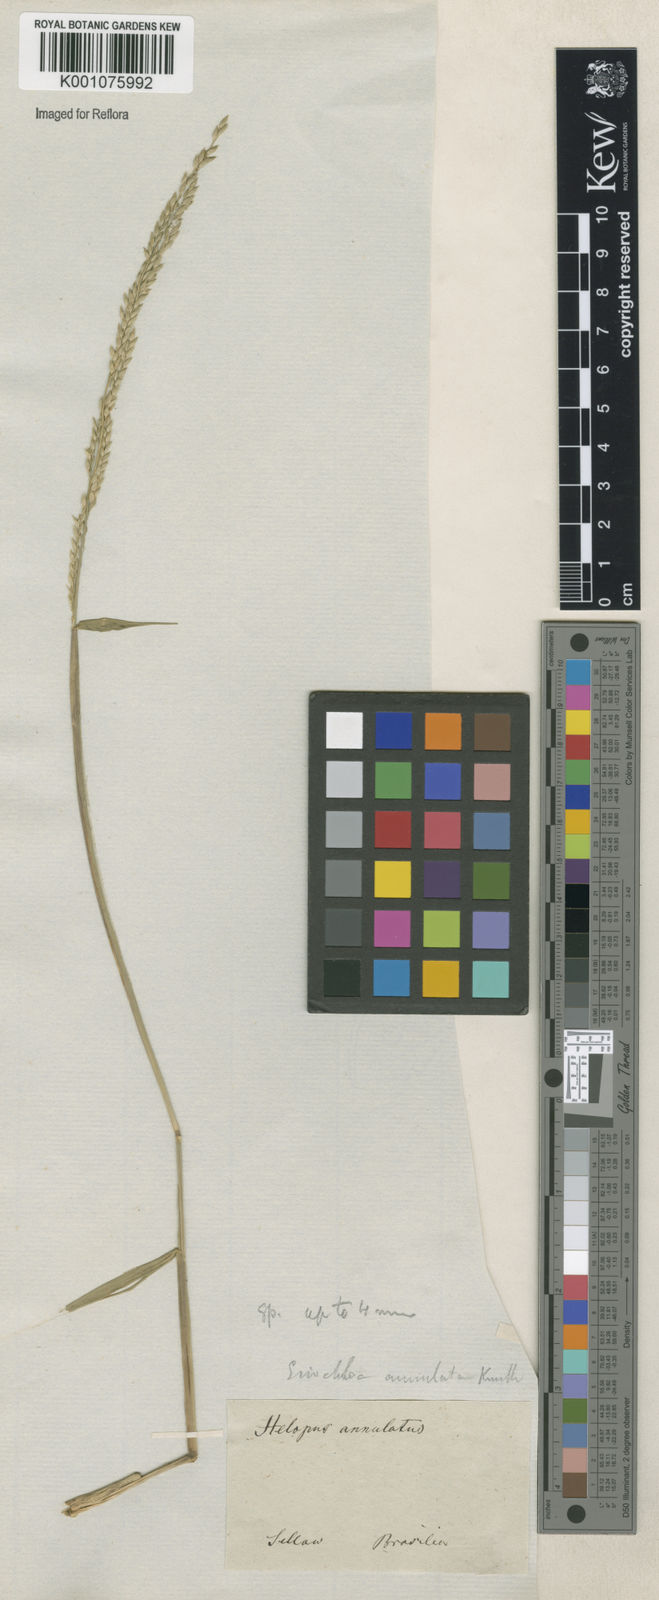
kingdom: Plantae
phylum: Tracheophyta
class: Liliopsida
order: Poales
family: Poaceae
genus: Eriochloa
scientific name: Eriochloa punctata
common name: Louisiana cupgrass
